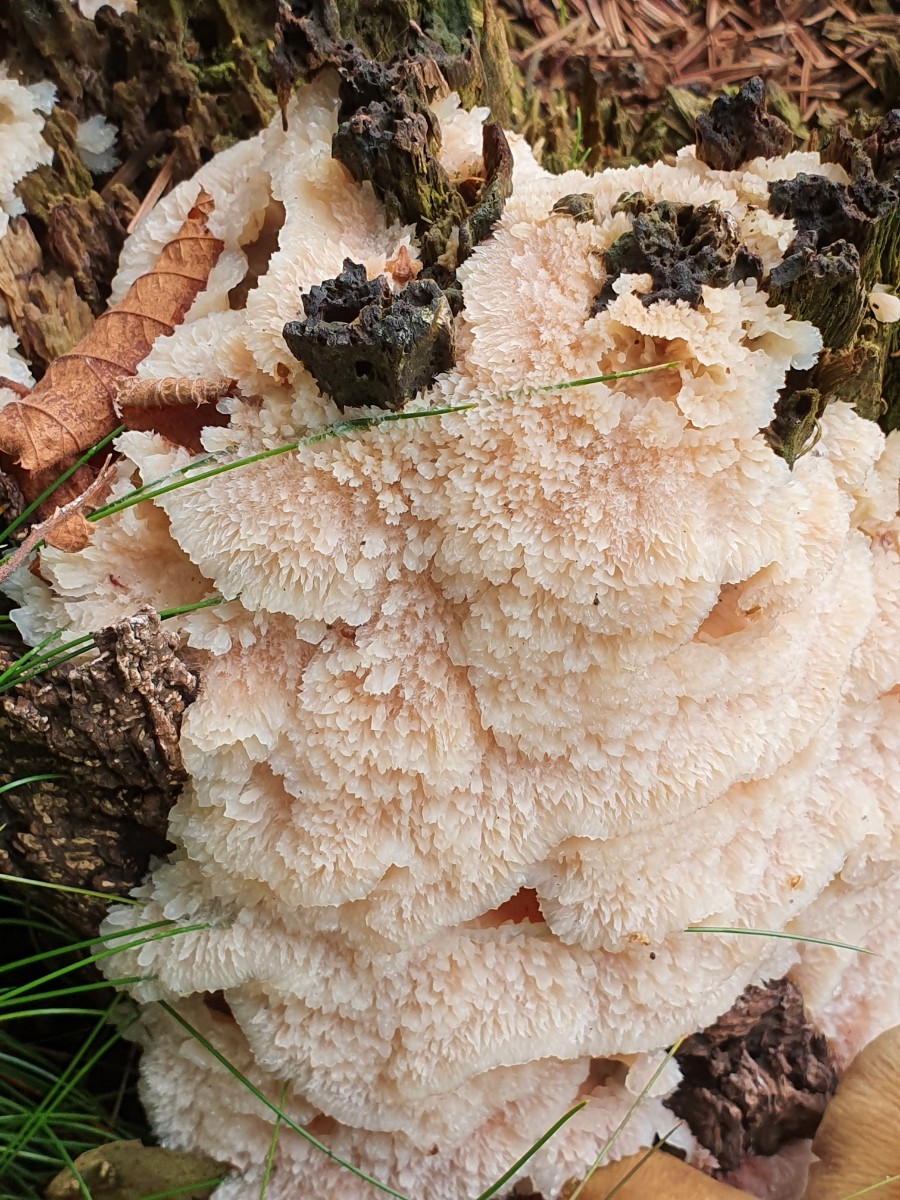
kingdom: Fungi
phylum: Basidiomycota
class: Agaricomycetes
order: Polyporales
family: Meruliaceae
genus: Phlebia
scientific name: Phlebia tremellosa
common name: bævrende åresvamp
